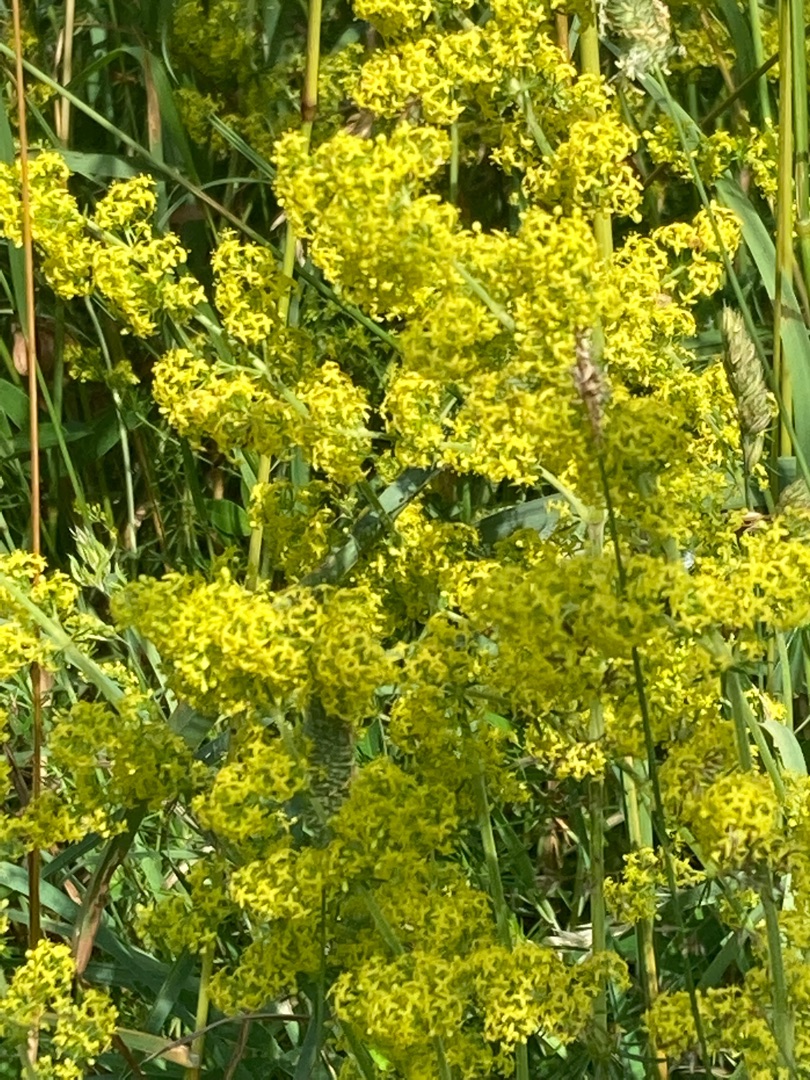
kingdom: Plantae
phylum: Tracheophyta
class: Magnoliopsida
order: Gentianales
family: Rubiaceae
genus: Galium
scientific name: Galium verum
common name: Gul snerre
